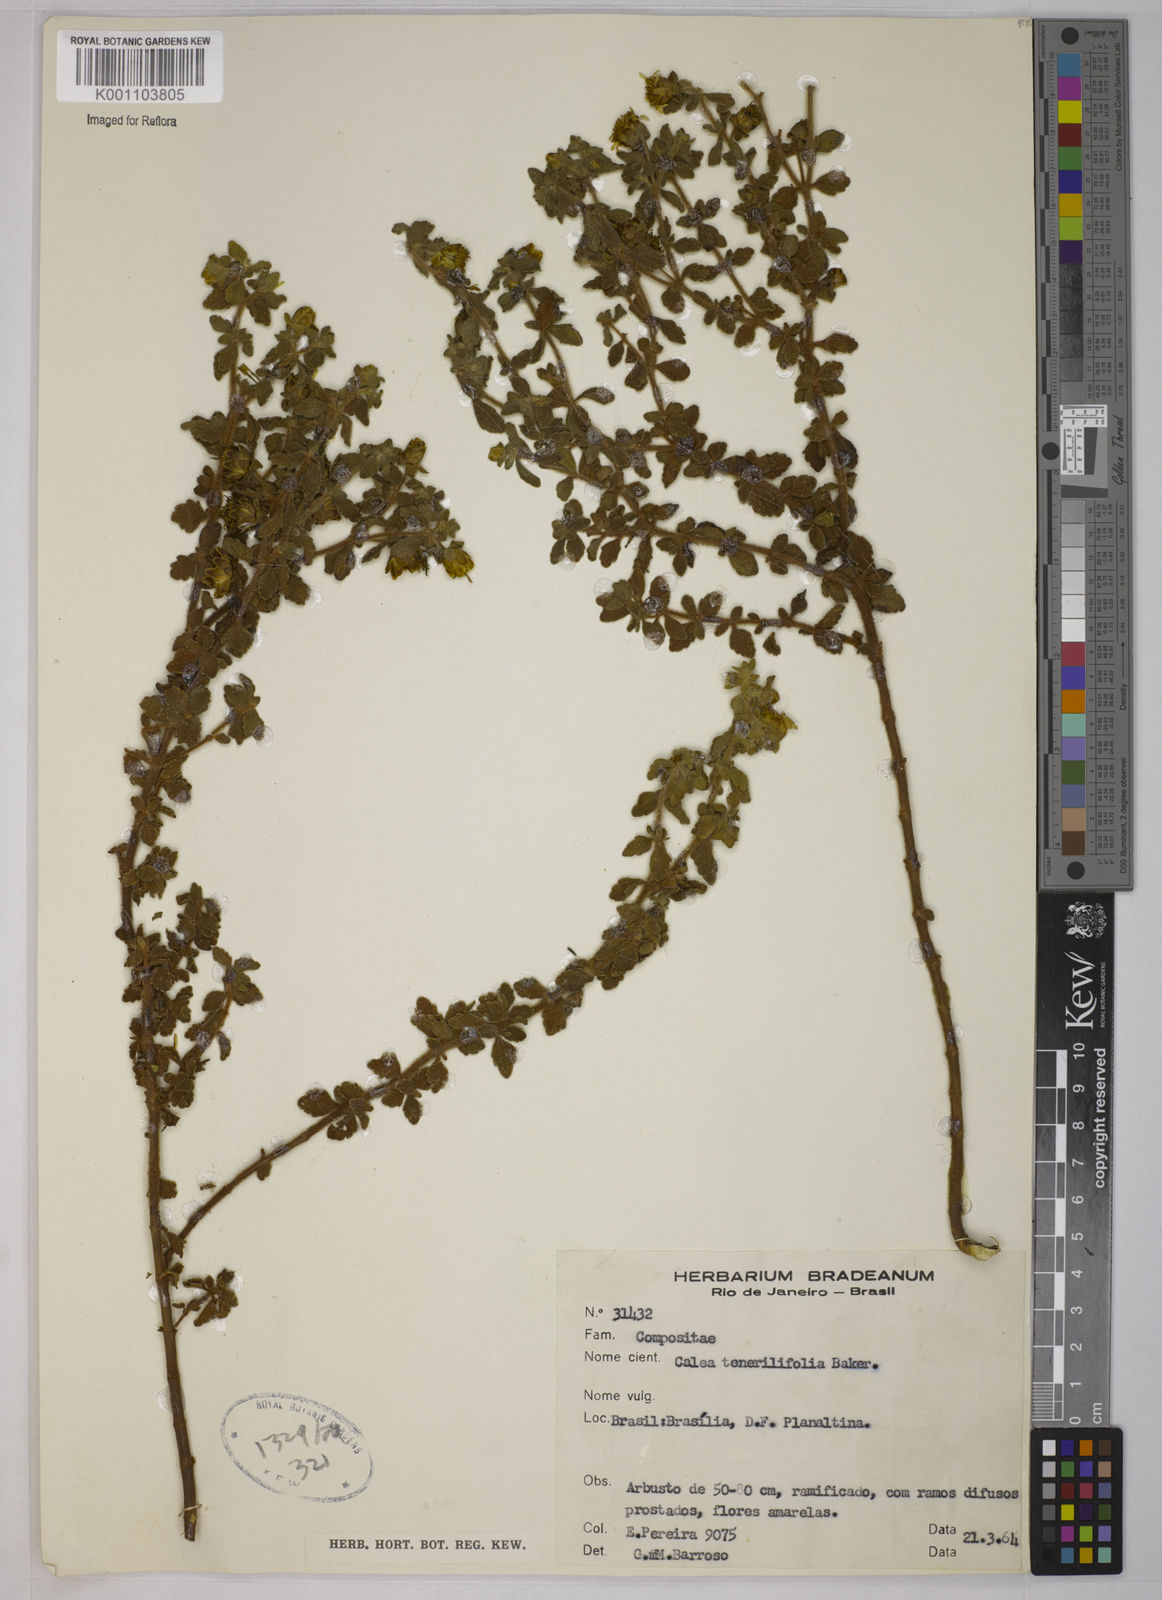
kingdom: Plantae
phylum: Tracheophyta
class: Magnoliopsida
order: Asterales
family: Asteraceae
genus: Calea
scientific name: Calea
